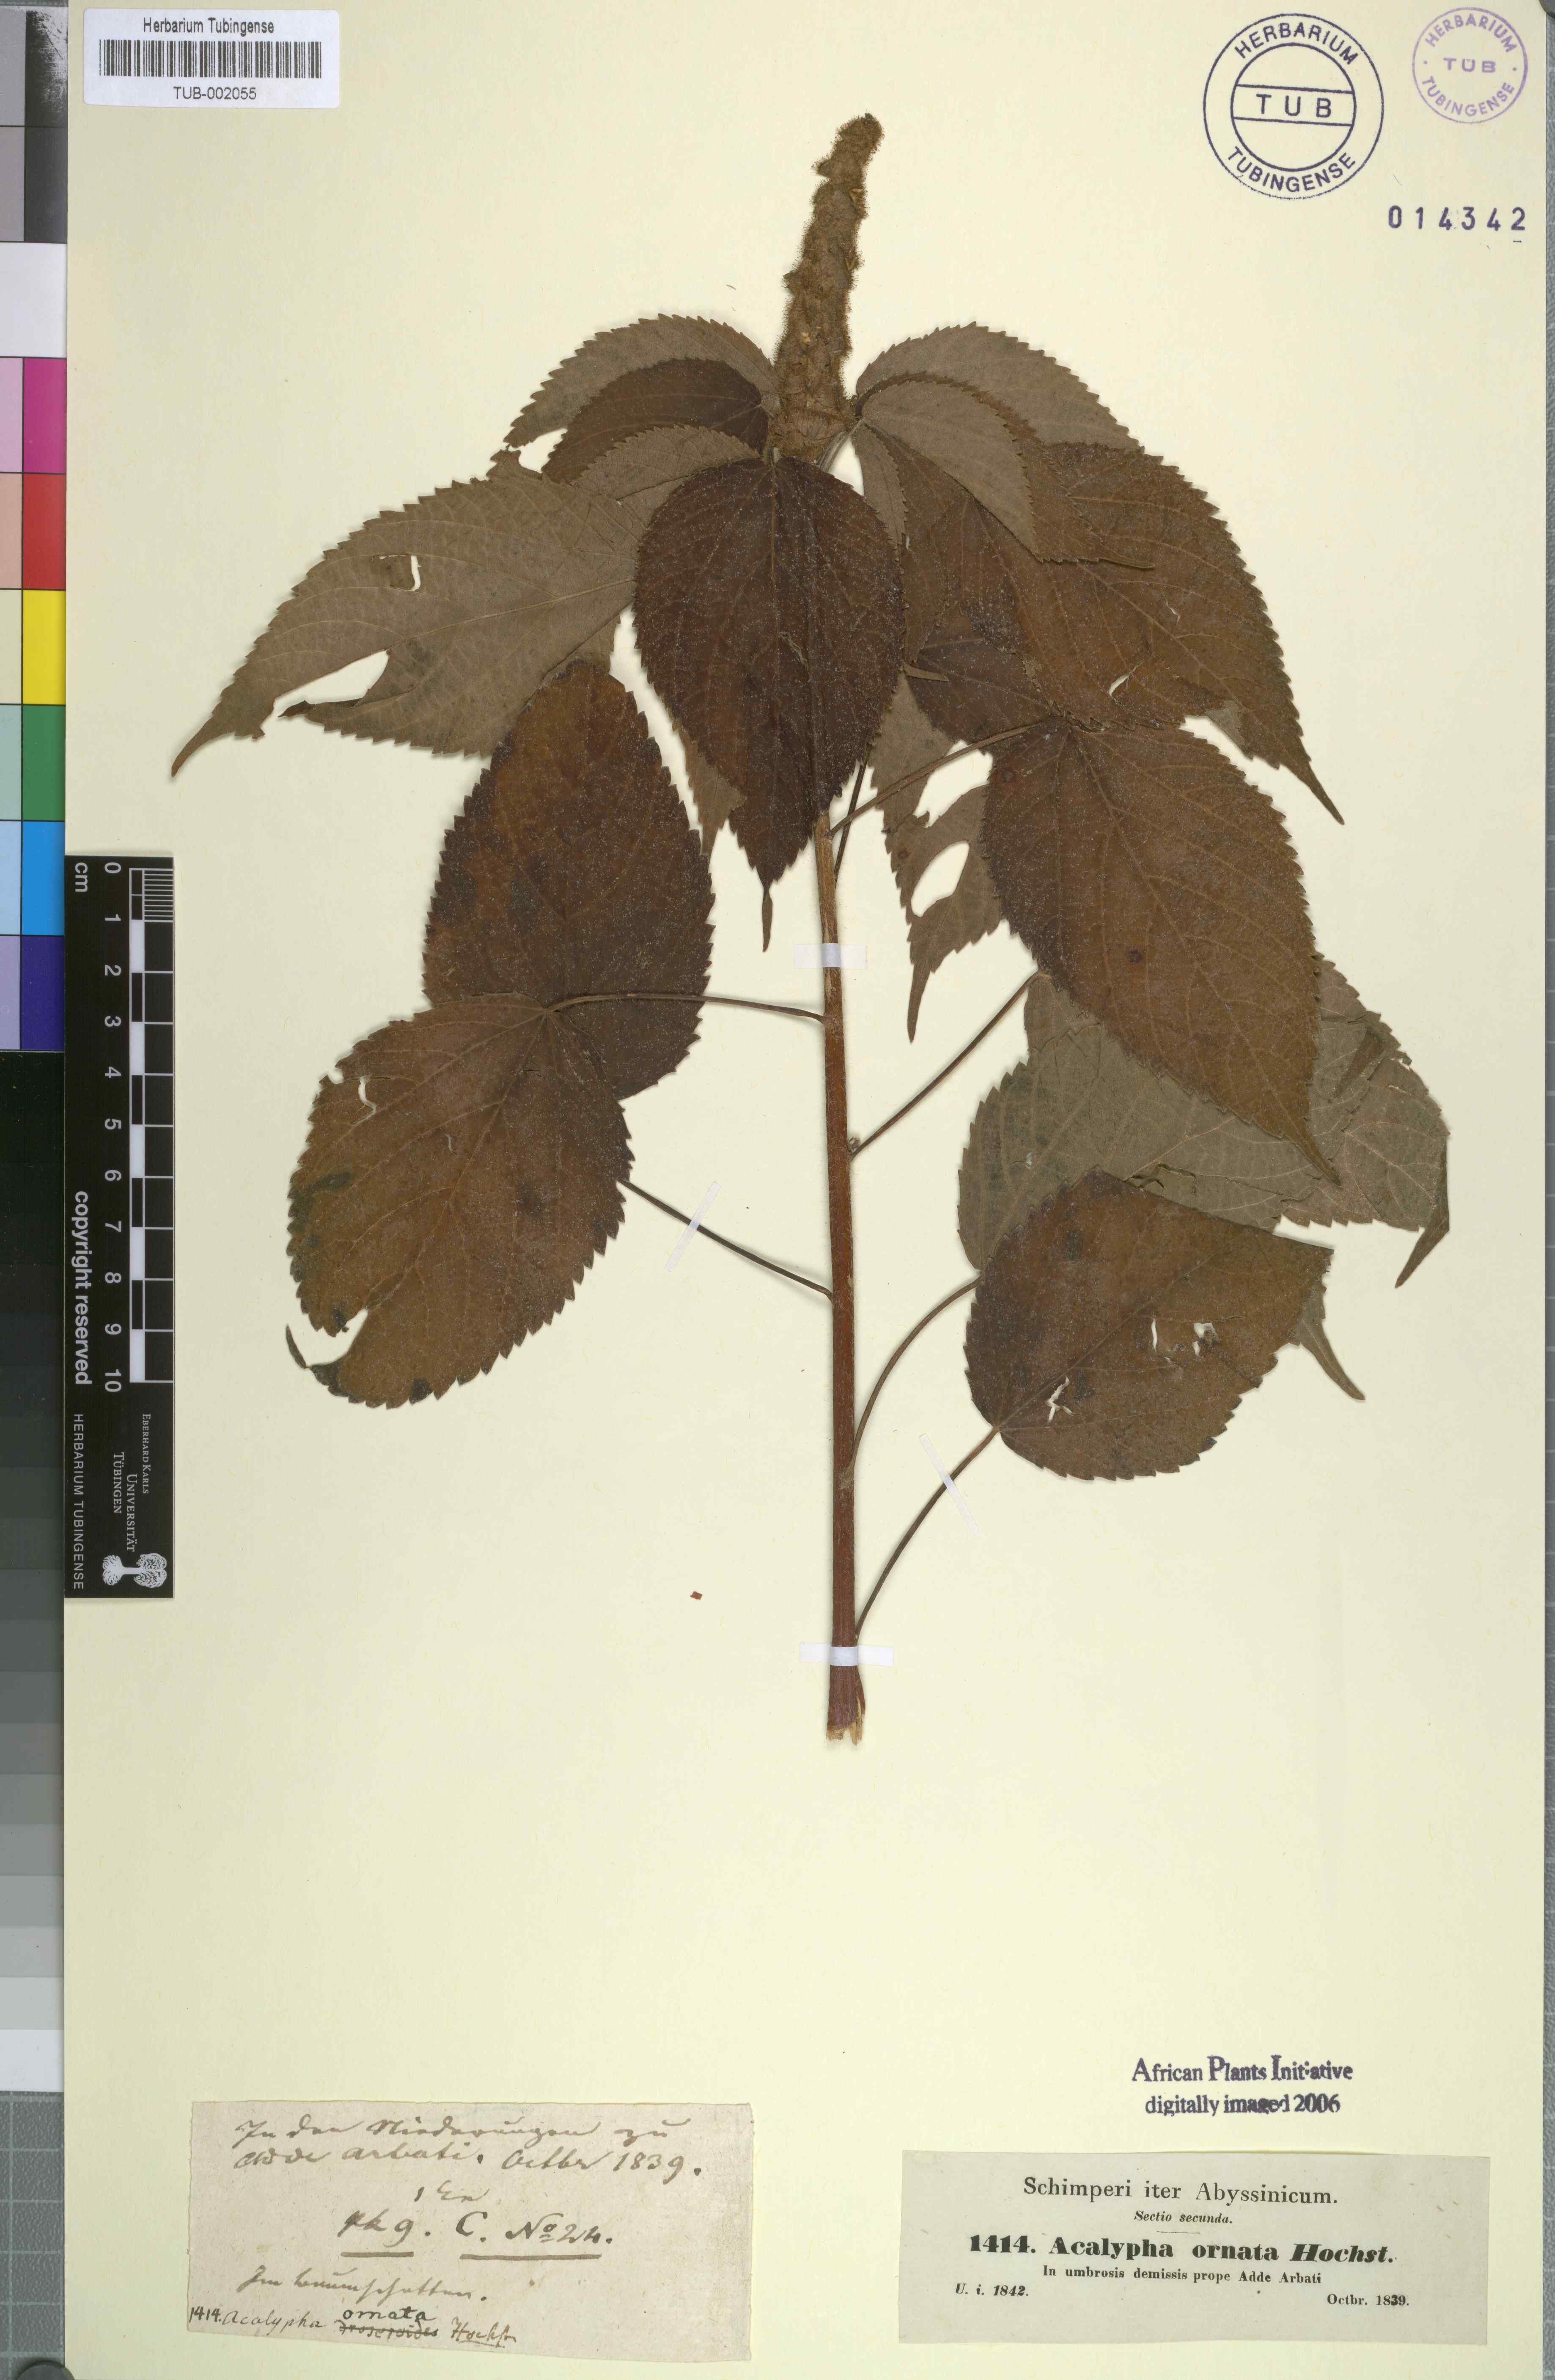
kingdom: Plantae
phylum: Tracheophyta
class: Magnoliopsida
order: Malpighiales
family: Euphorbiaceae
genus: Acalypha
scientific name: Acalypha ornata
